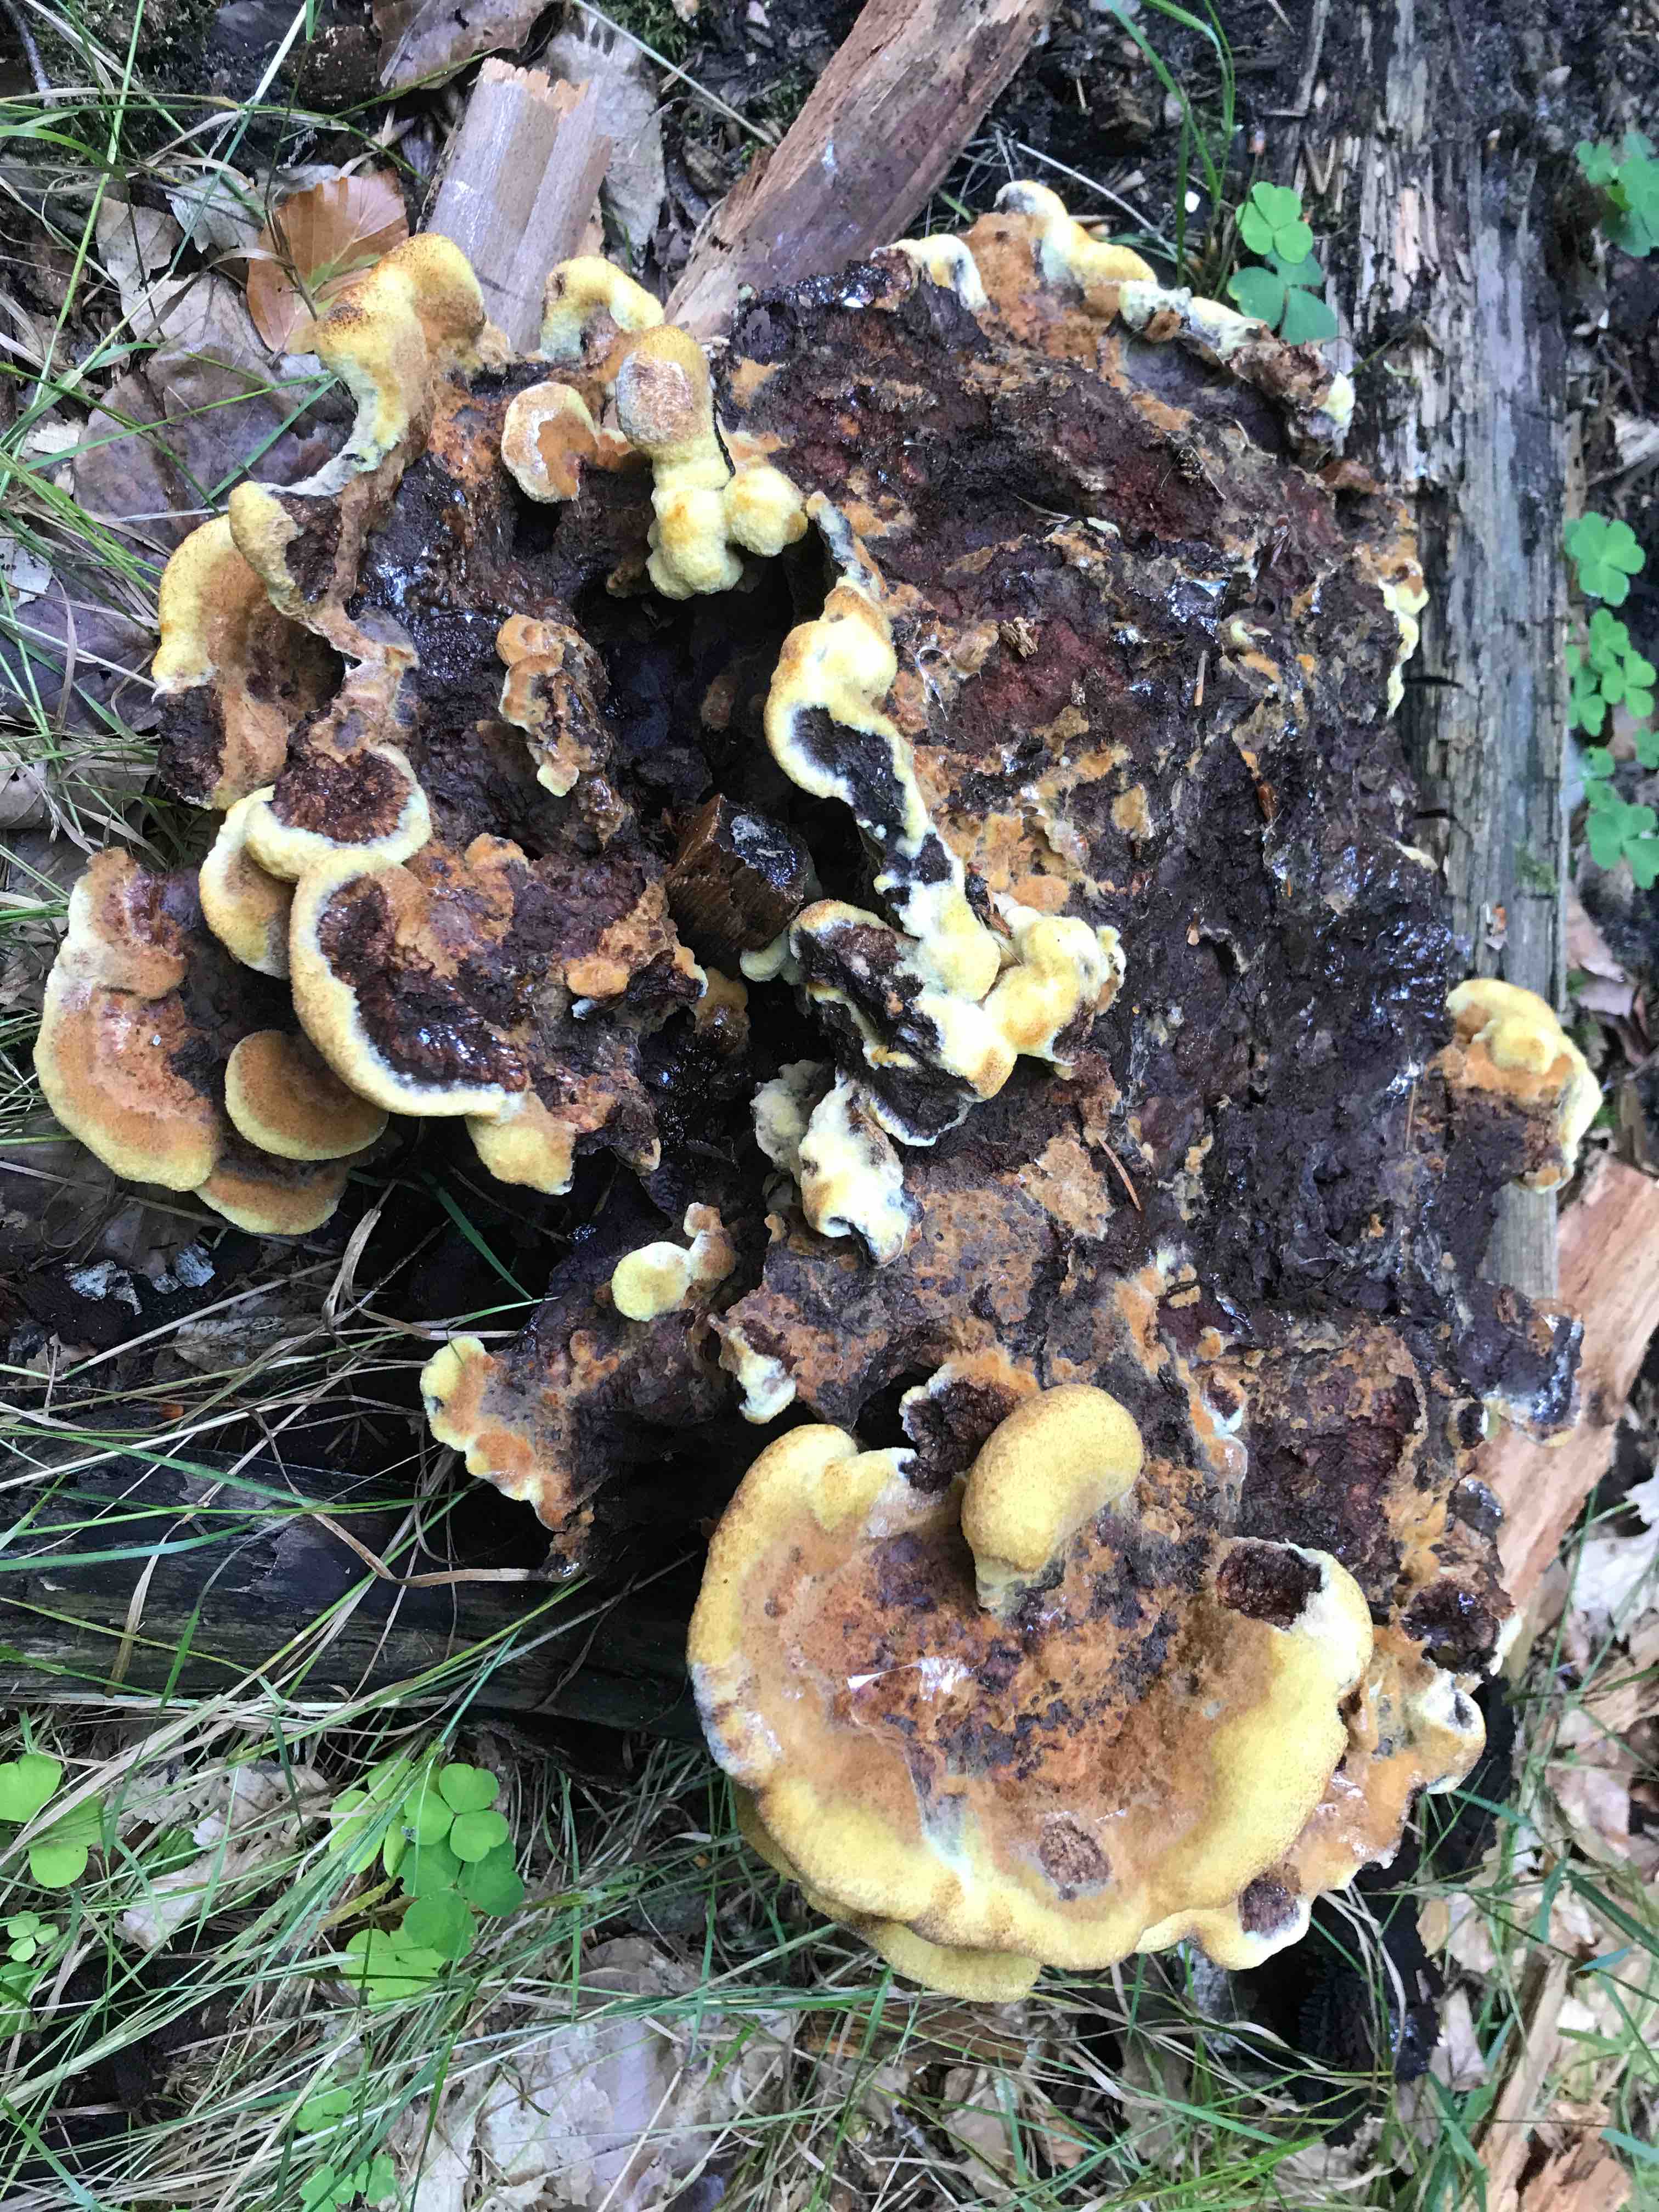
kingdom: Fungi
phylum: Basidiomycota
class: Agaricomycetes
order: Polyporales
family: Laetiporaceae
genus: Phaeolus
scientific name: Phaeolus schweinitzii
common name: brunporesvamp
